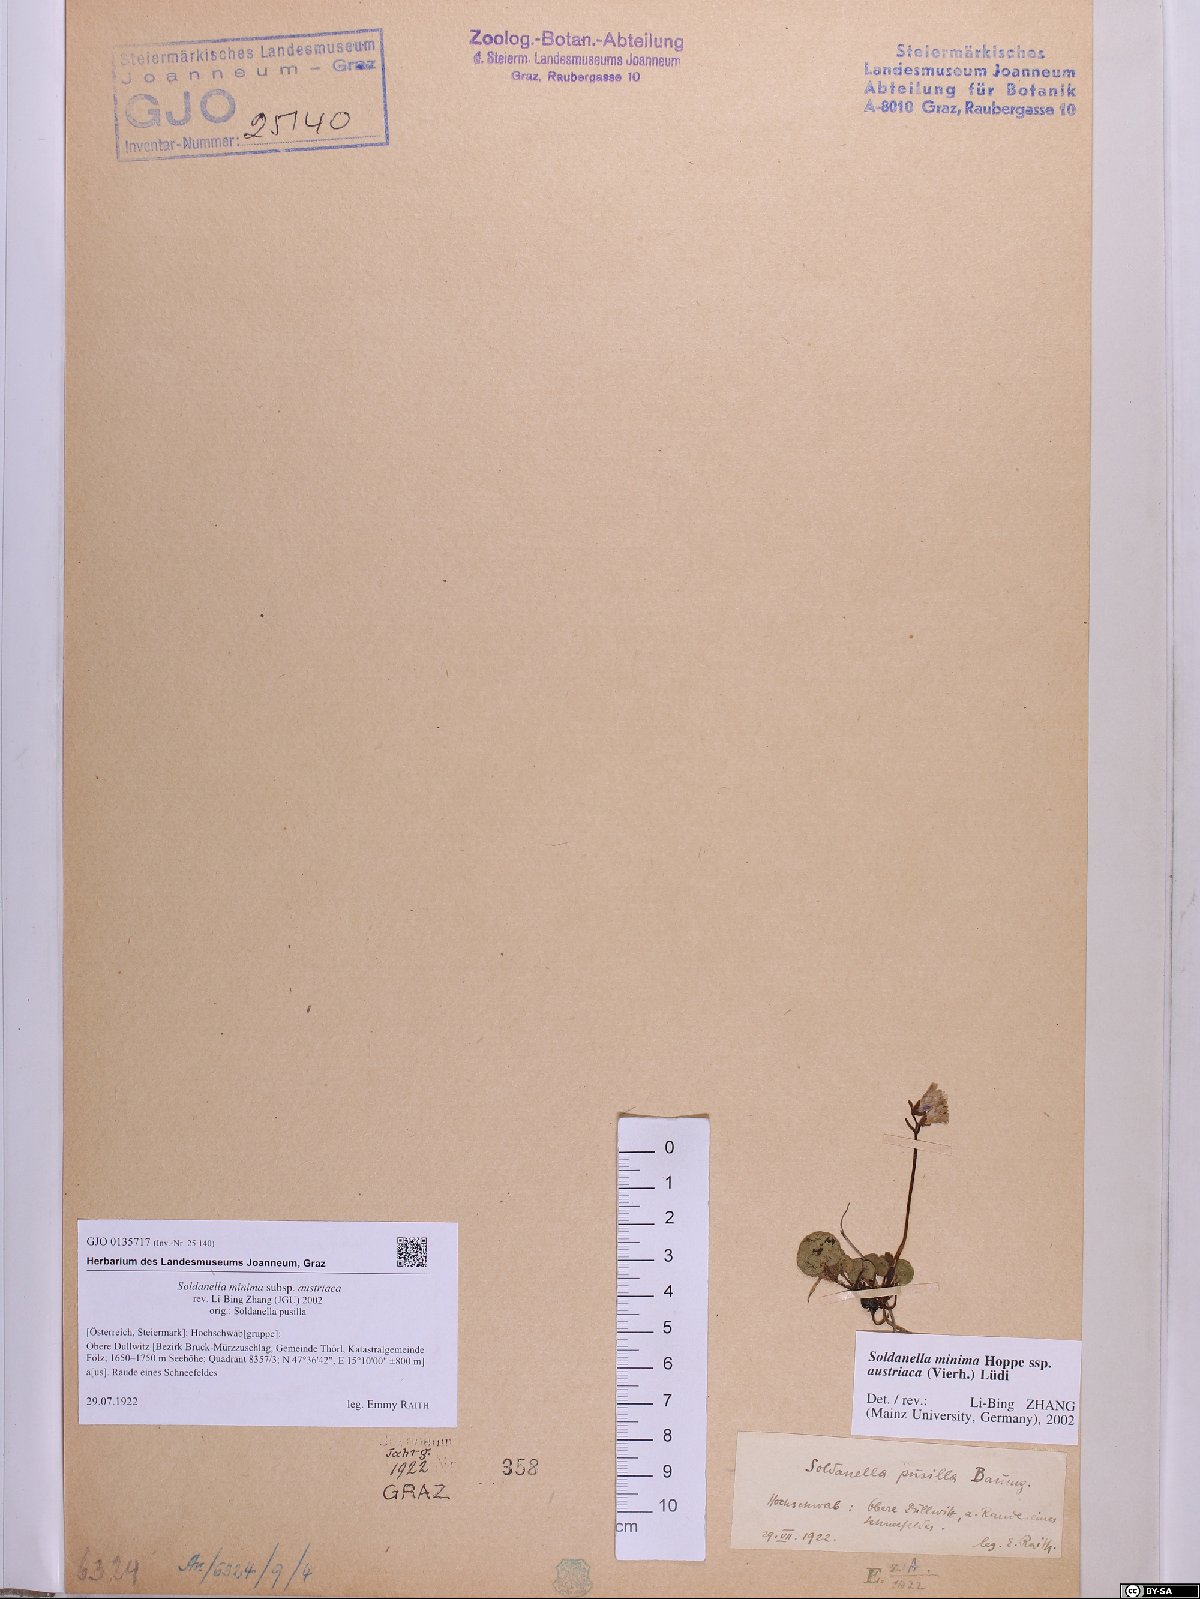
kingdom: Plantae
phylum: Tracheophyta
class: Magnoliopsida
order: Ericales
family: Primulaceae
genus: Soldanella
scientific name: Soldanella austriaca
